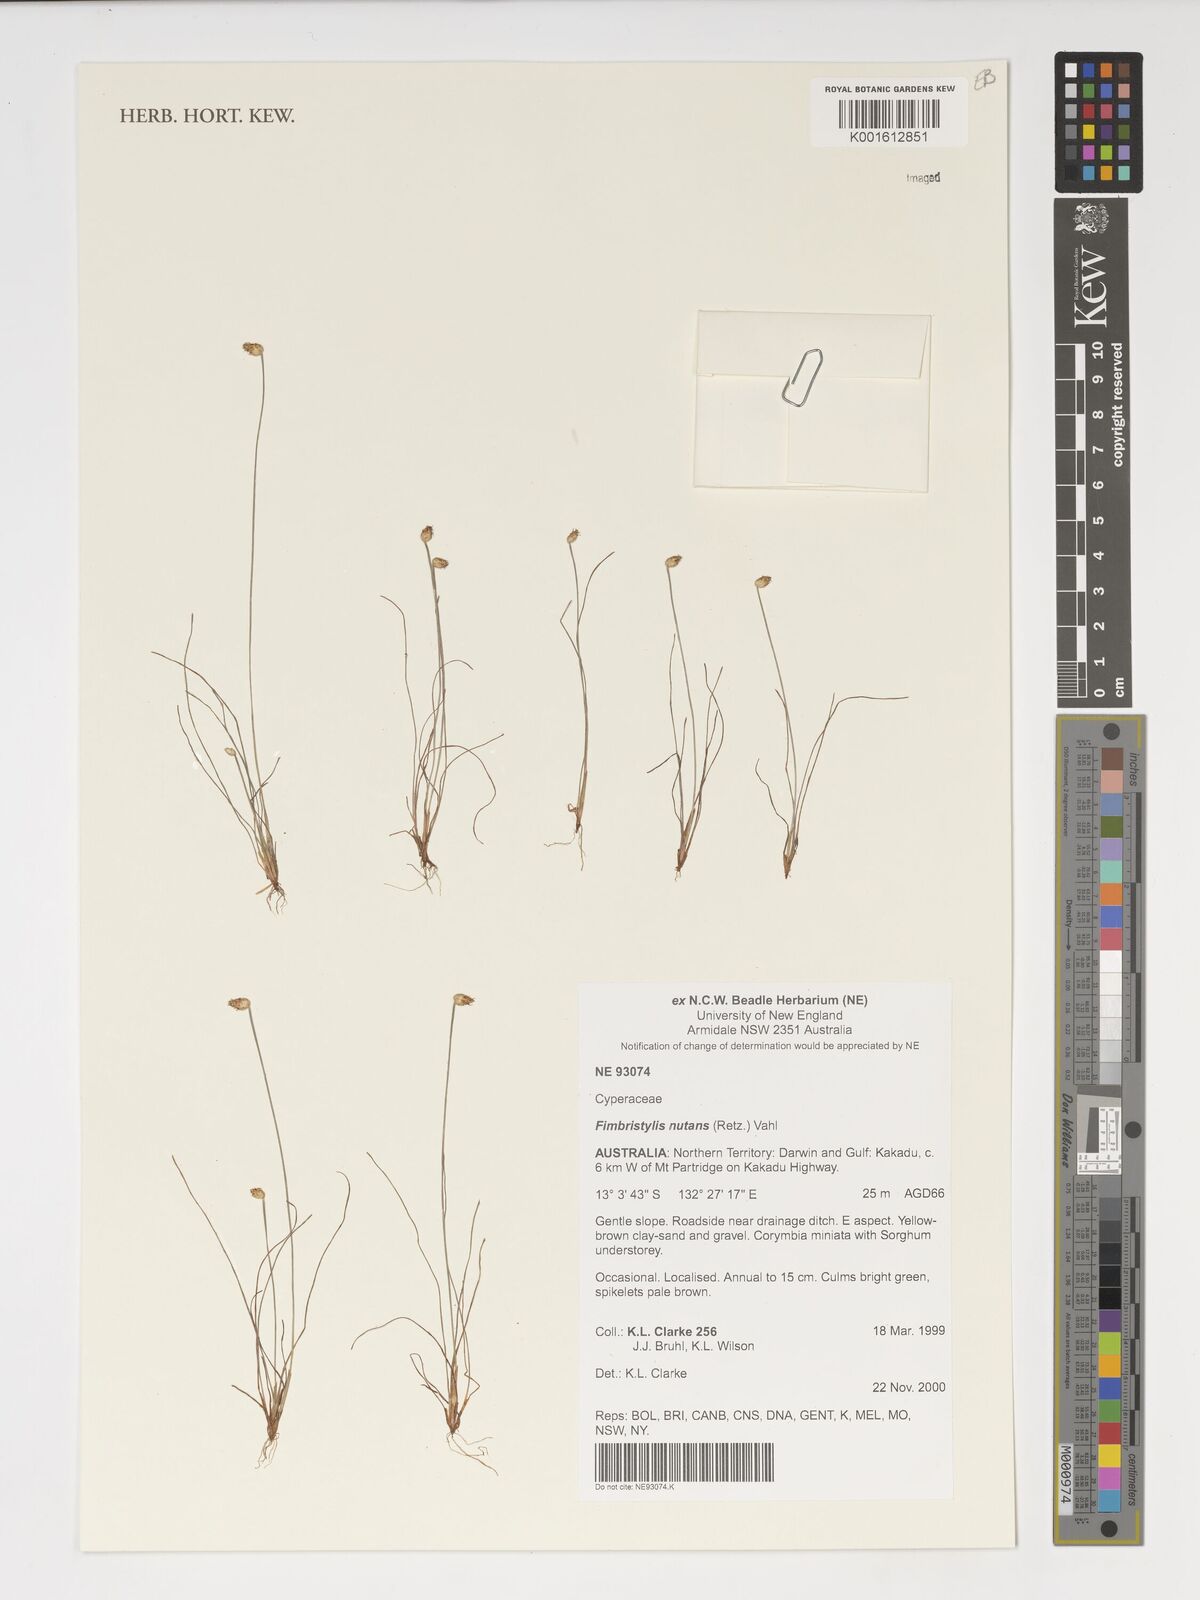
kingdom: Plantae
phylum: Tracheophyta
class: Liliopsida
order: Poales
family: Cyperaceae
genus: Fimbristylis
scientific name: Fimbristylis nutans
